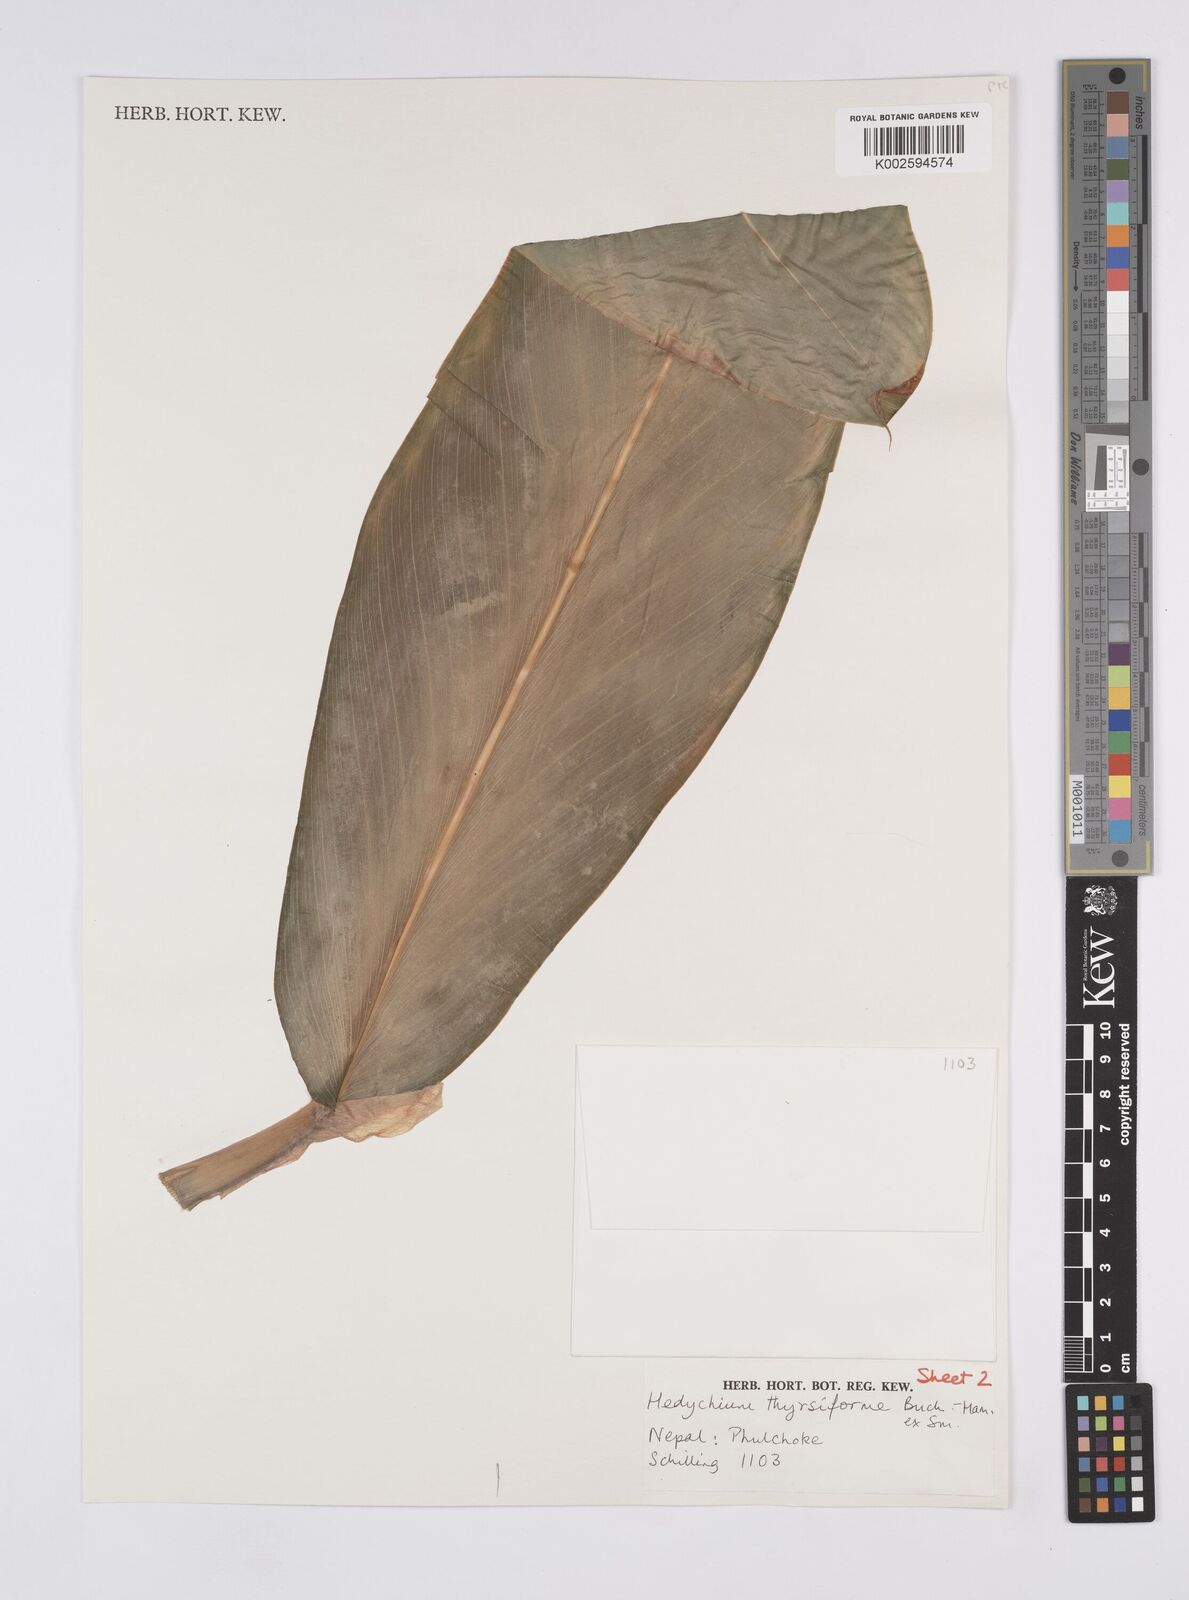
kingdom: Plantae
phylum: Tracheophyta
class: Liliopsida
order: Zingiberales
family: Zingiberaceae
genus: Hedychium
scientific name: Hedychium thyrsiforme
